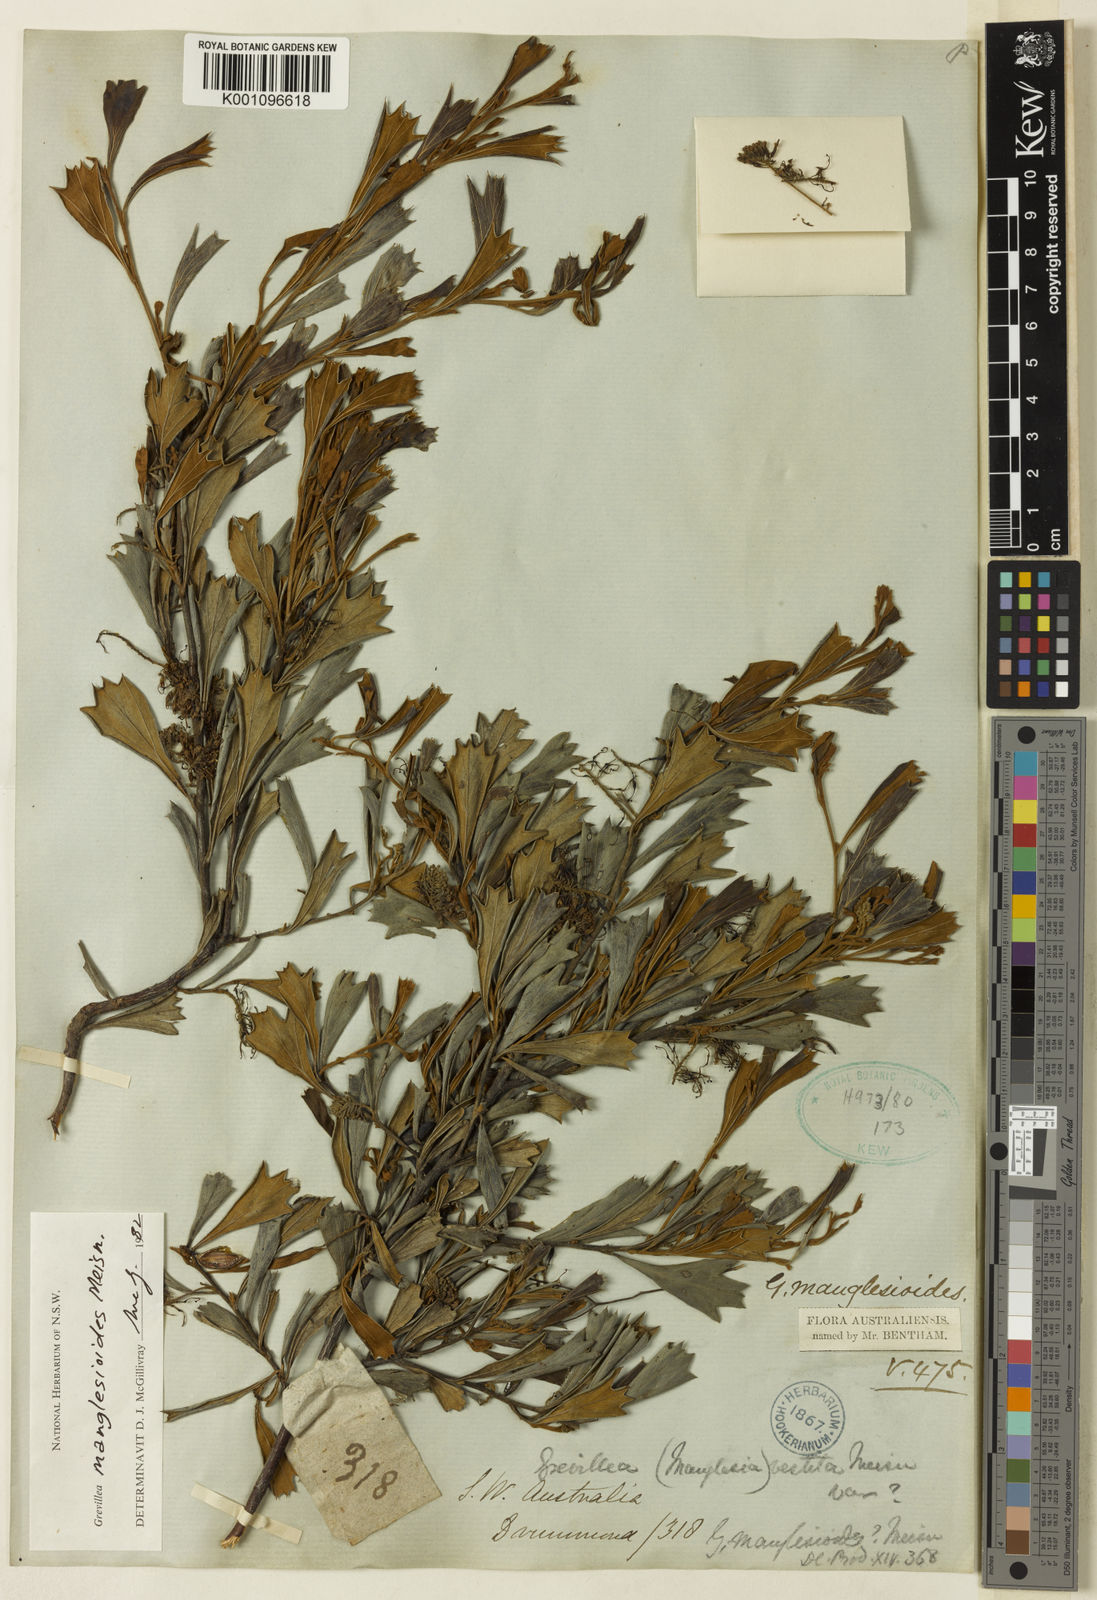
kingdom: Plantae
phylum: Tracheophyta
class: Magnoliopsida
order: Proteales
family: Proteaceae
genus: Grevillea
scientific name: Grevillea manglesioides
